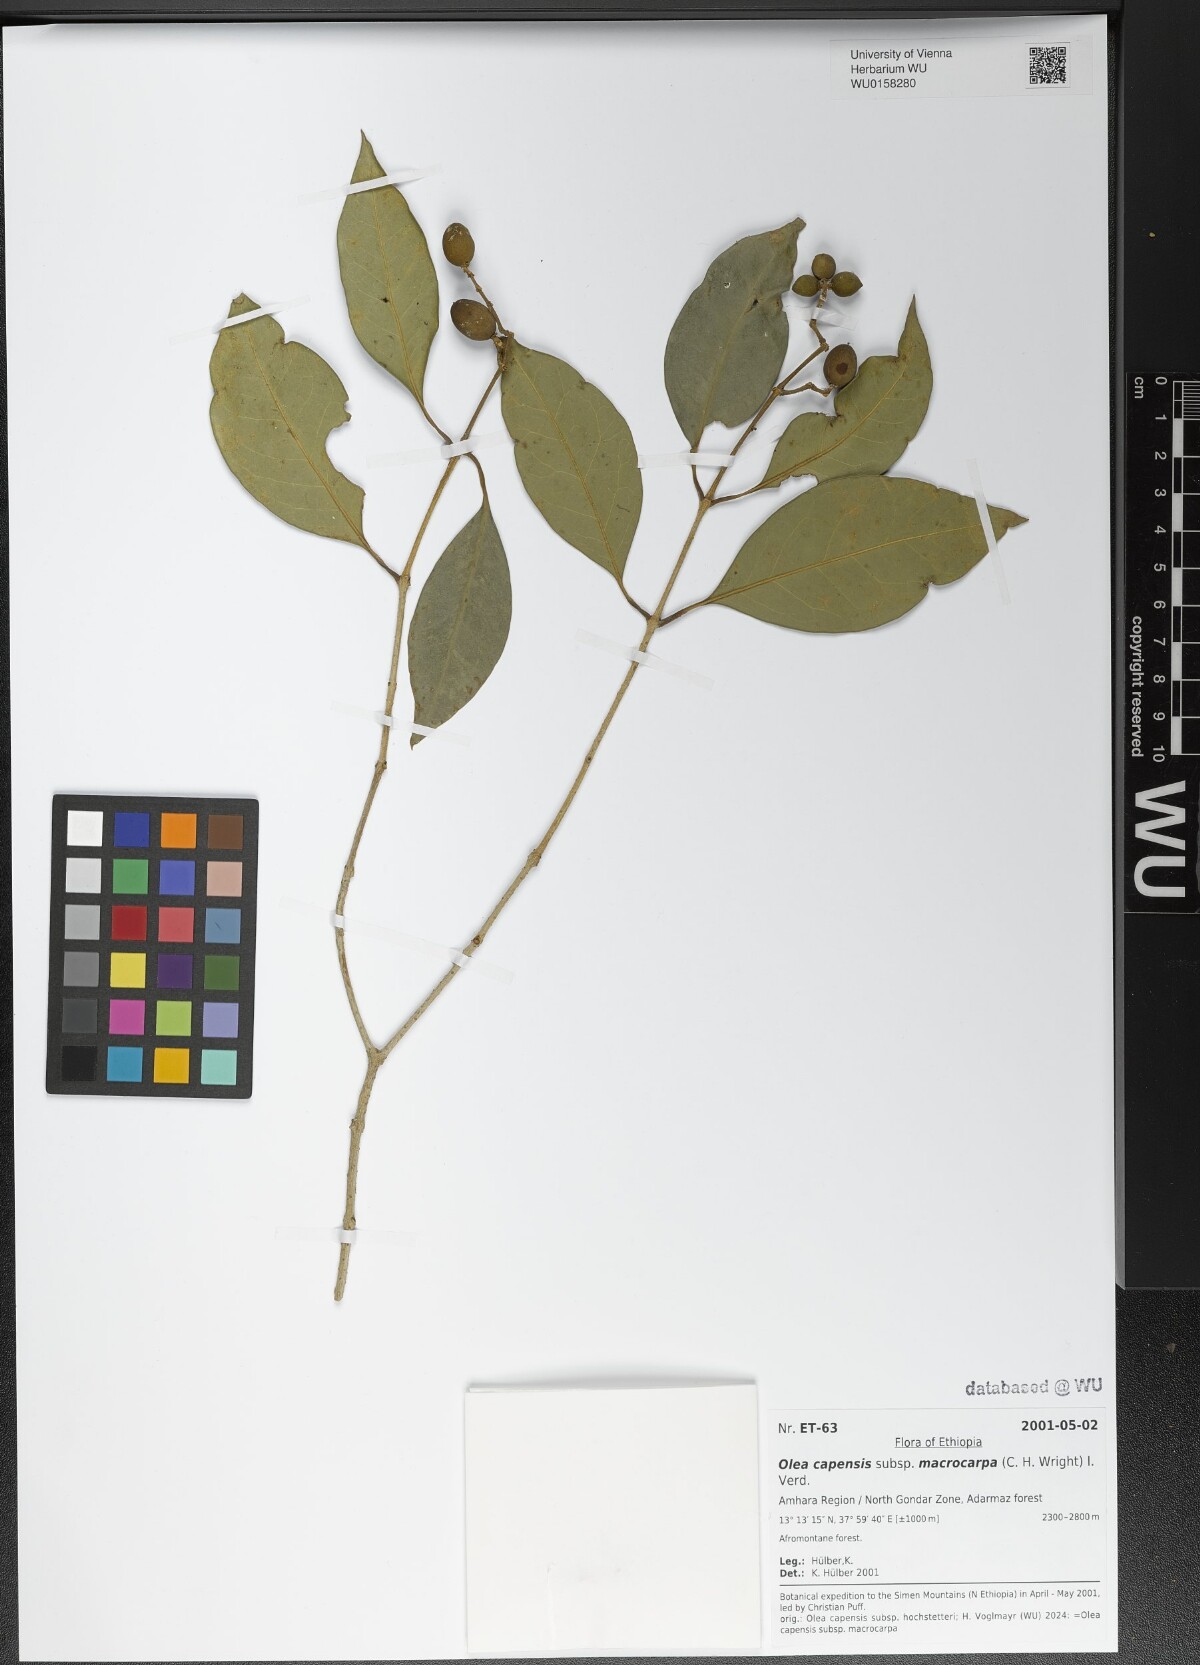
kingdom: Plantae
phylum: Tracheophyta
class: Magnoliopsida
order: Lamiales
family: Oleaceae
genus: Olea
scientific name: Olea capensis
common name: Black ironwood
